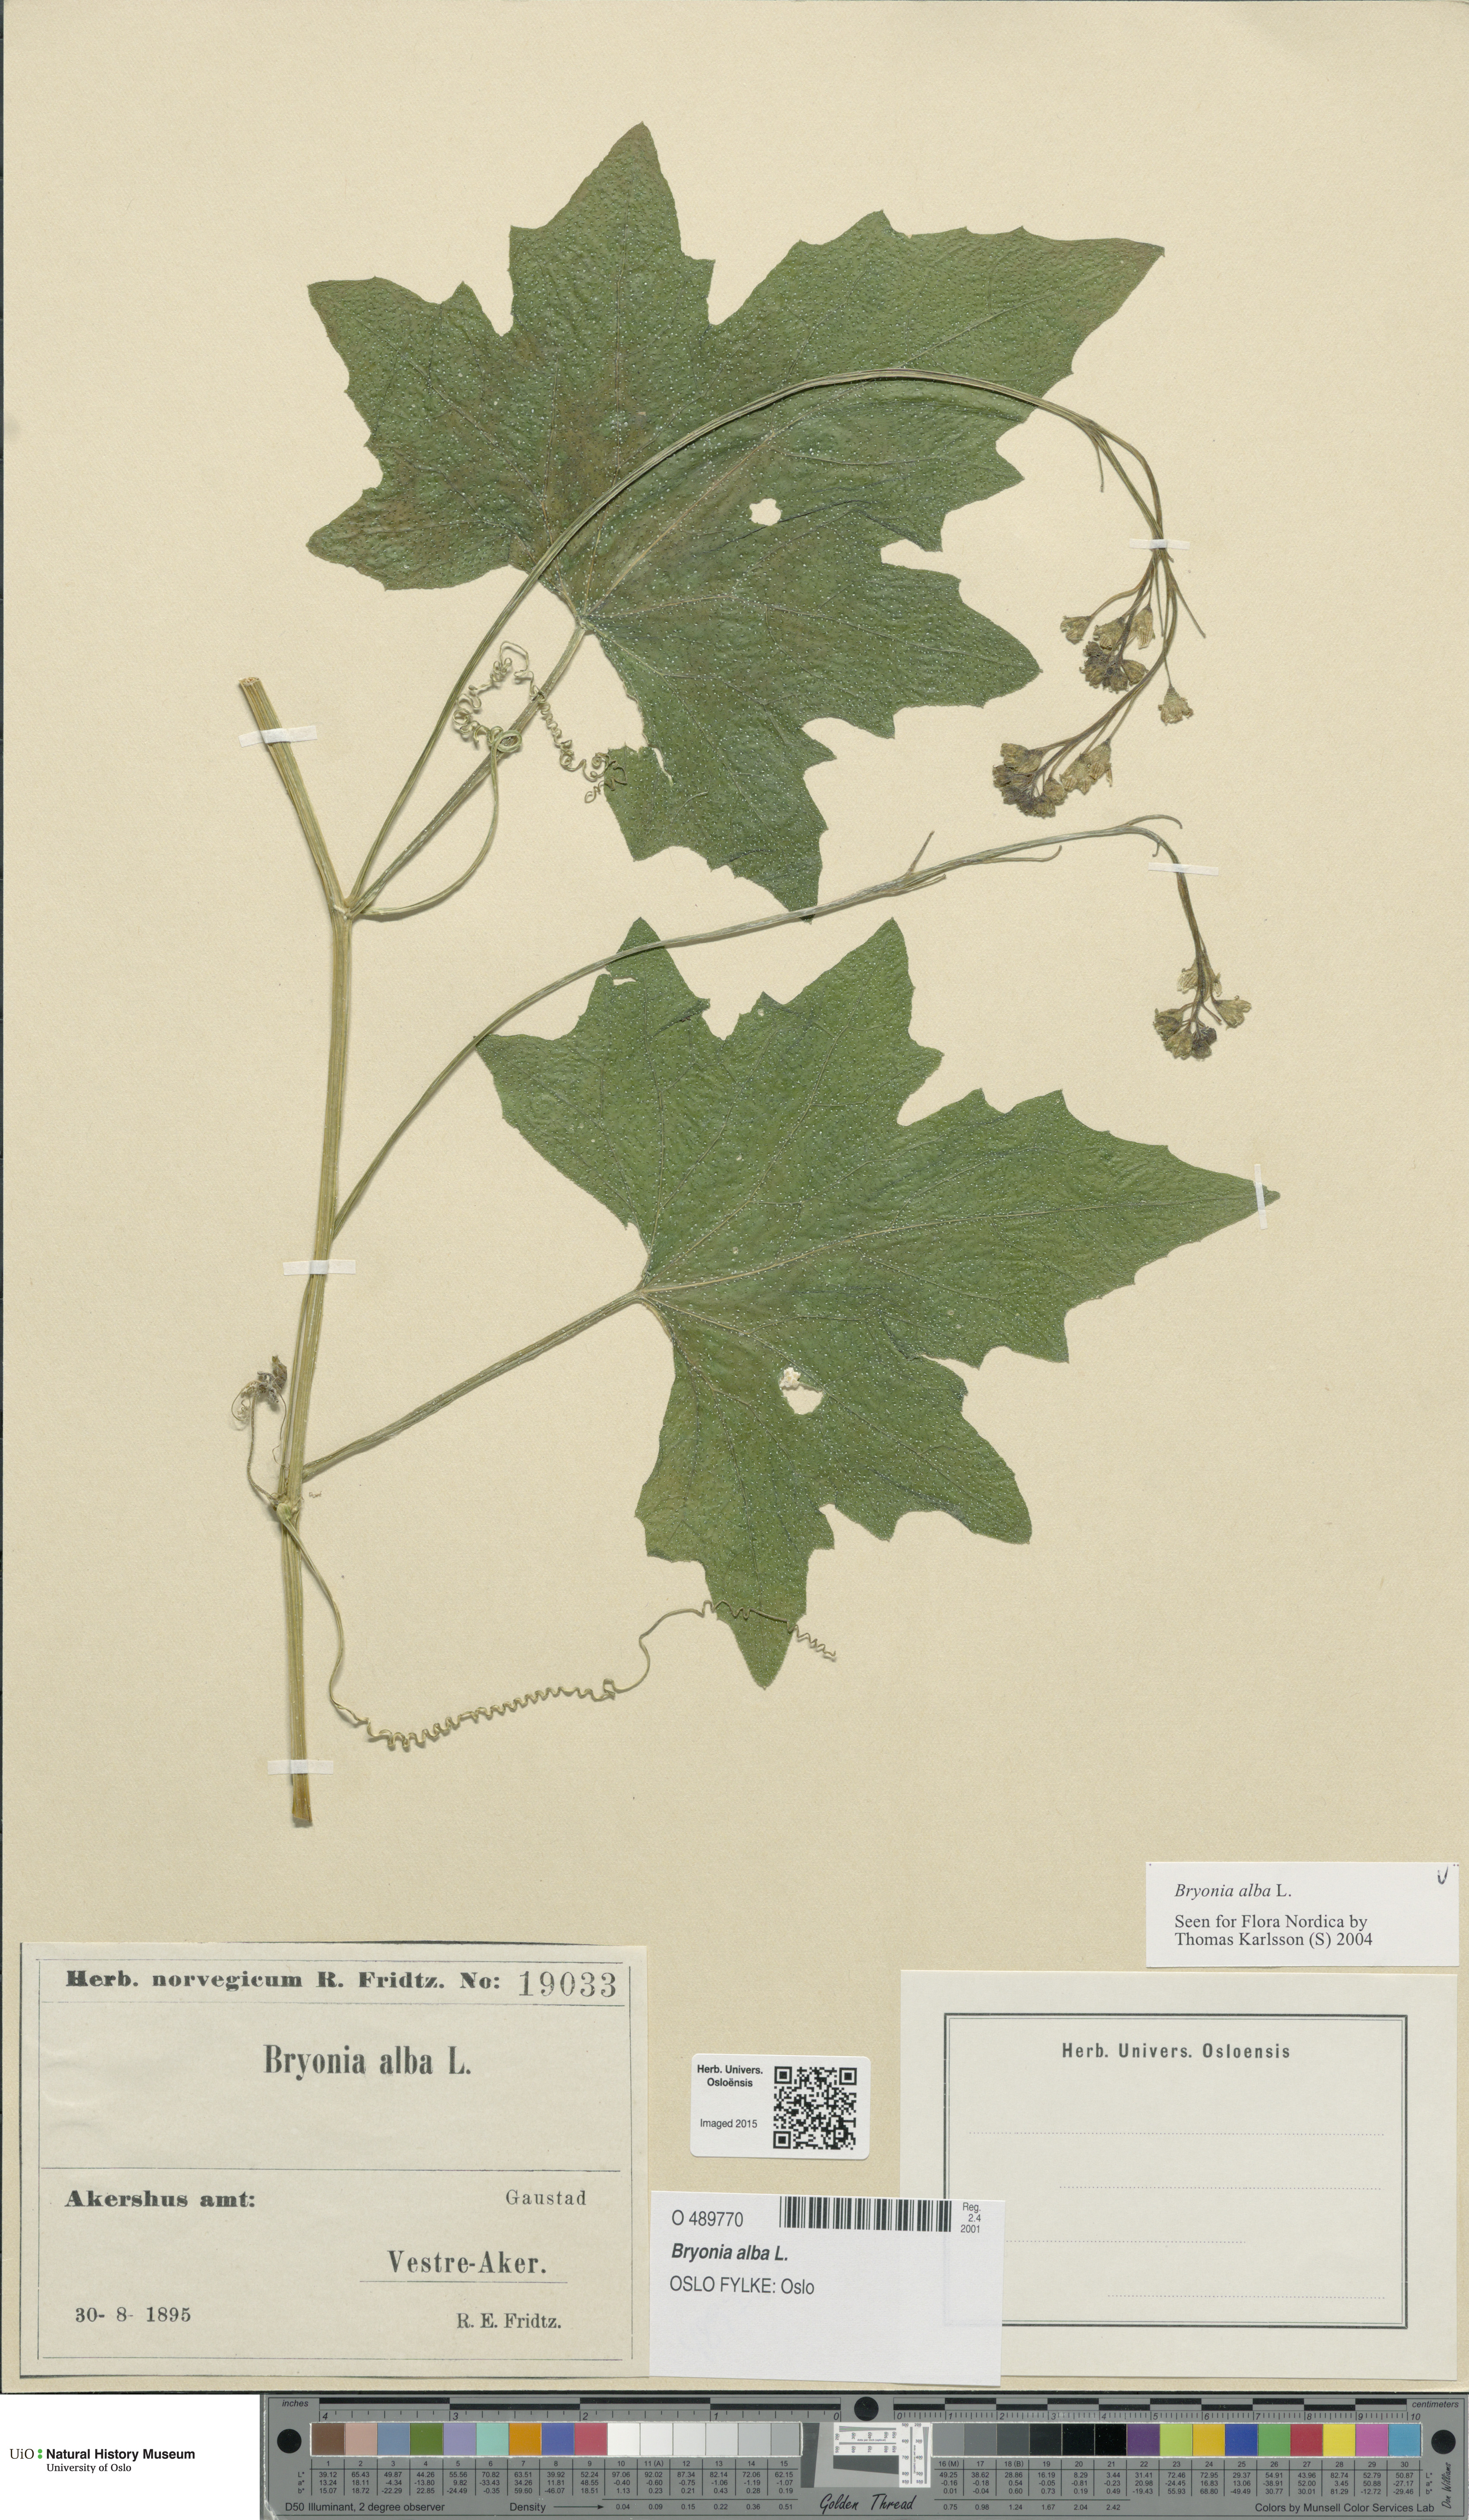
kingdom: Plantae
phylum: Tracheophyta
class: Magnoliopsida
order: Cucurbitales
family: Cucurbitaceae
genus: Bryonia
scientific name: Bryonia alba
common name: White bryony
